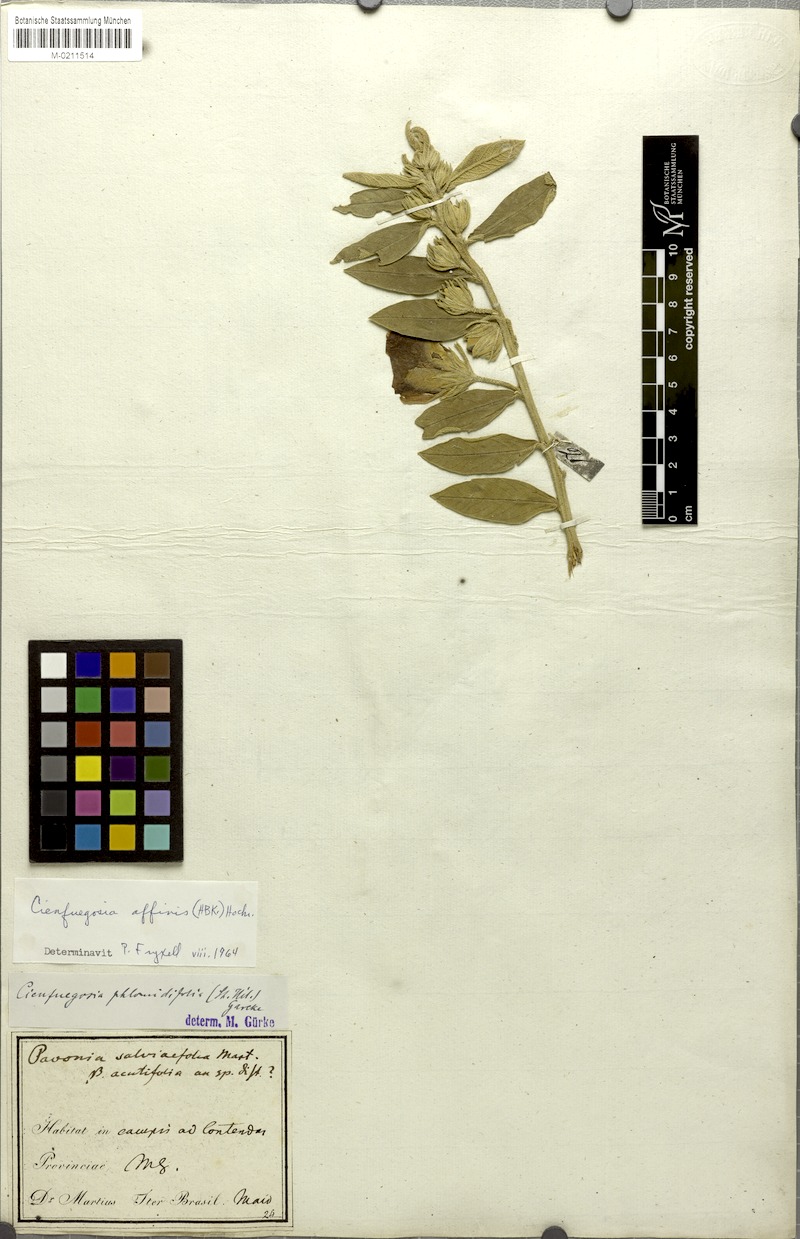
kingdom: Plantae
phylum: Tracheophyta
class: Magnoliopsida
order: Malvales
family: Malvaceae
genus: Cienfuegosia
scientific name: Cienfuegosia affinis
